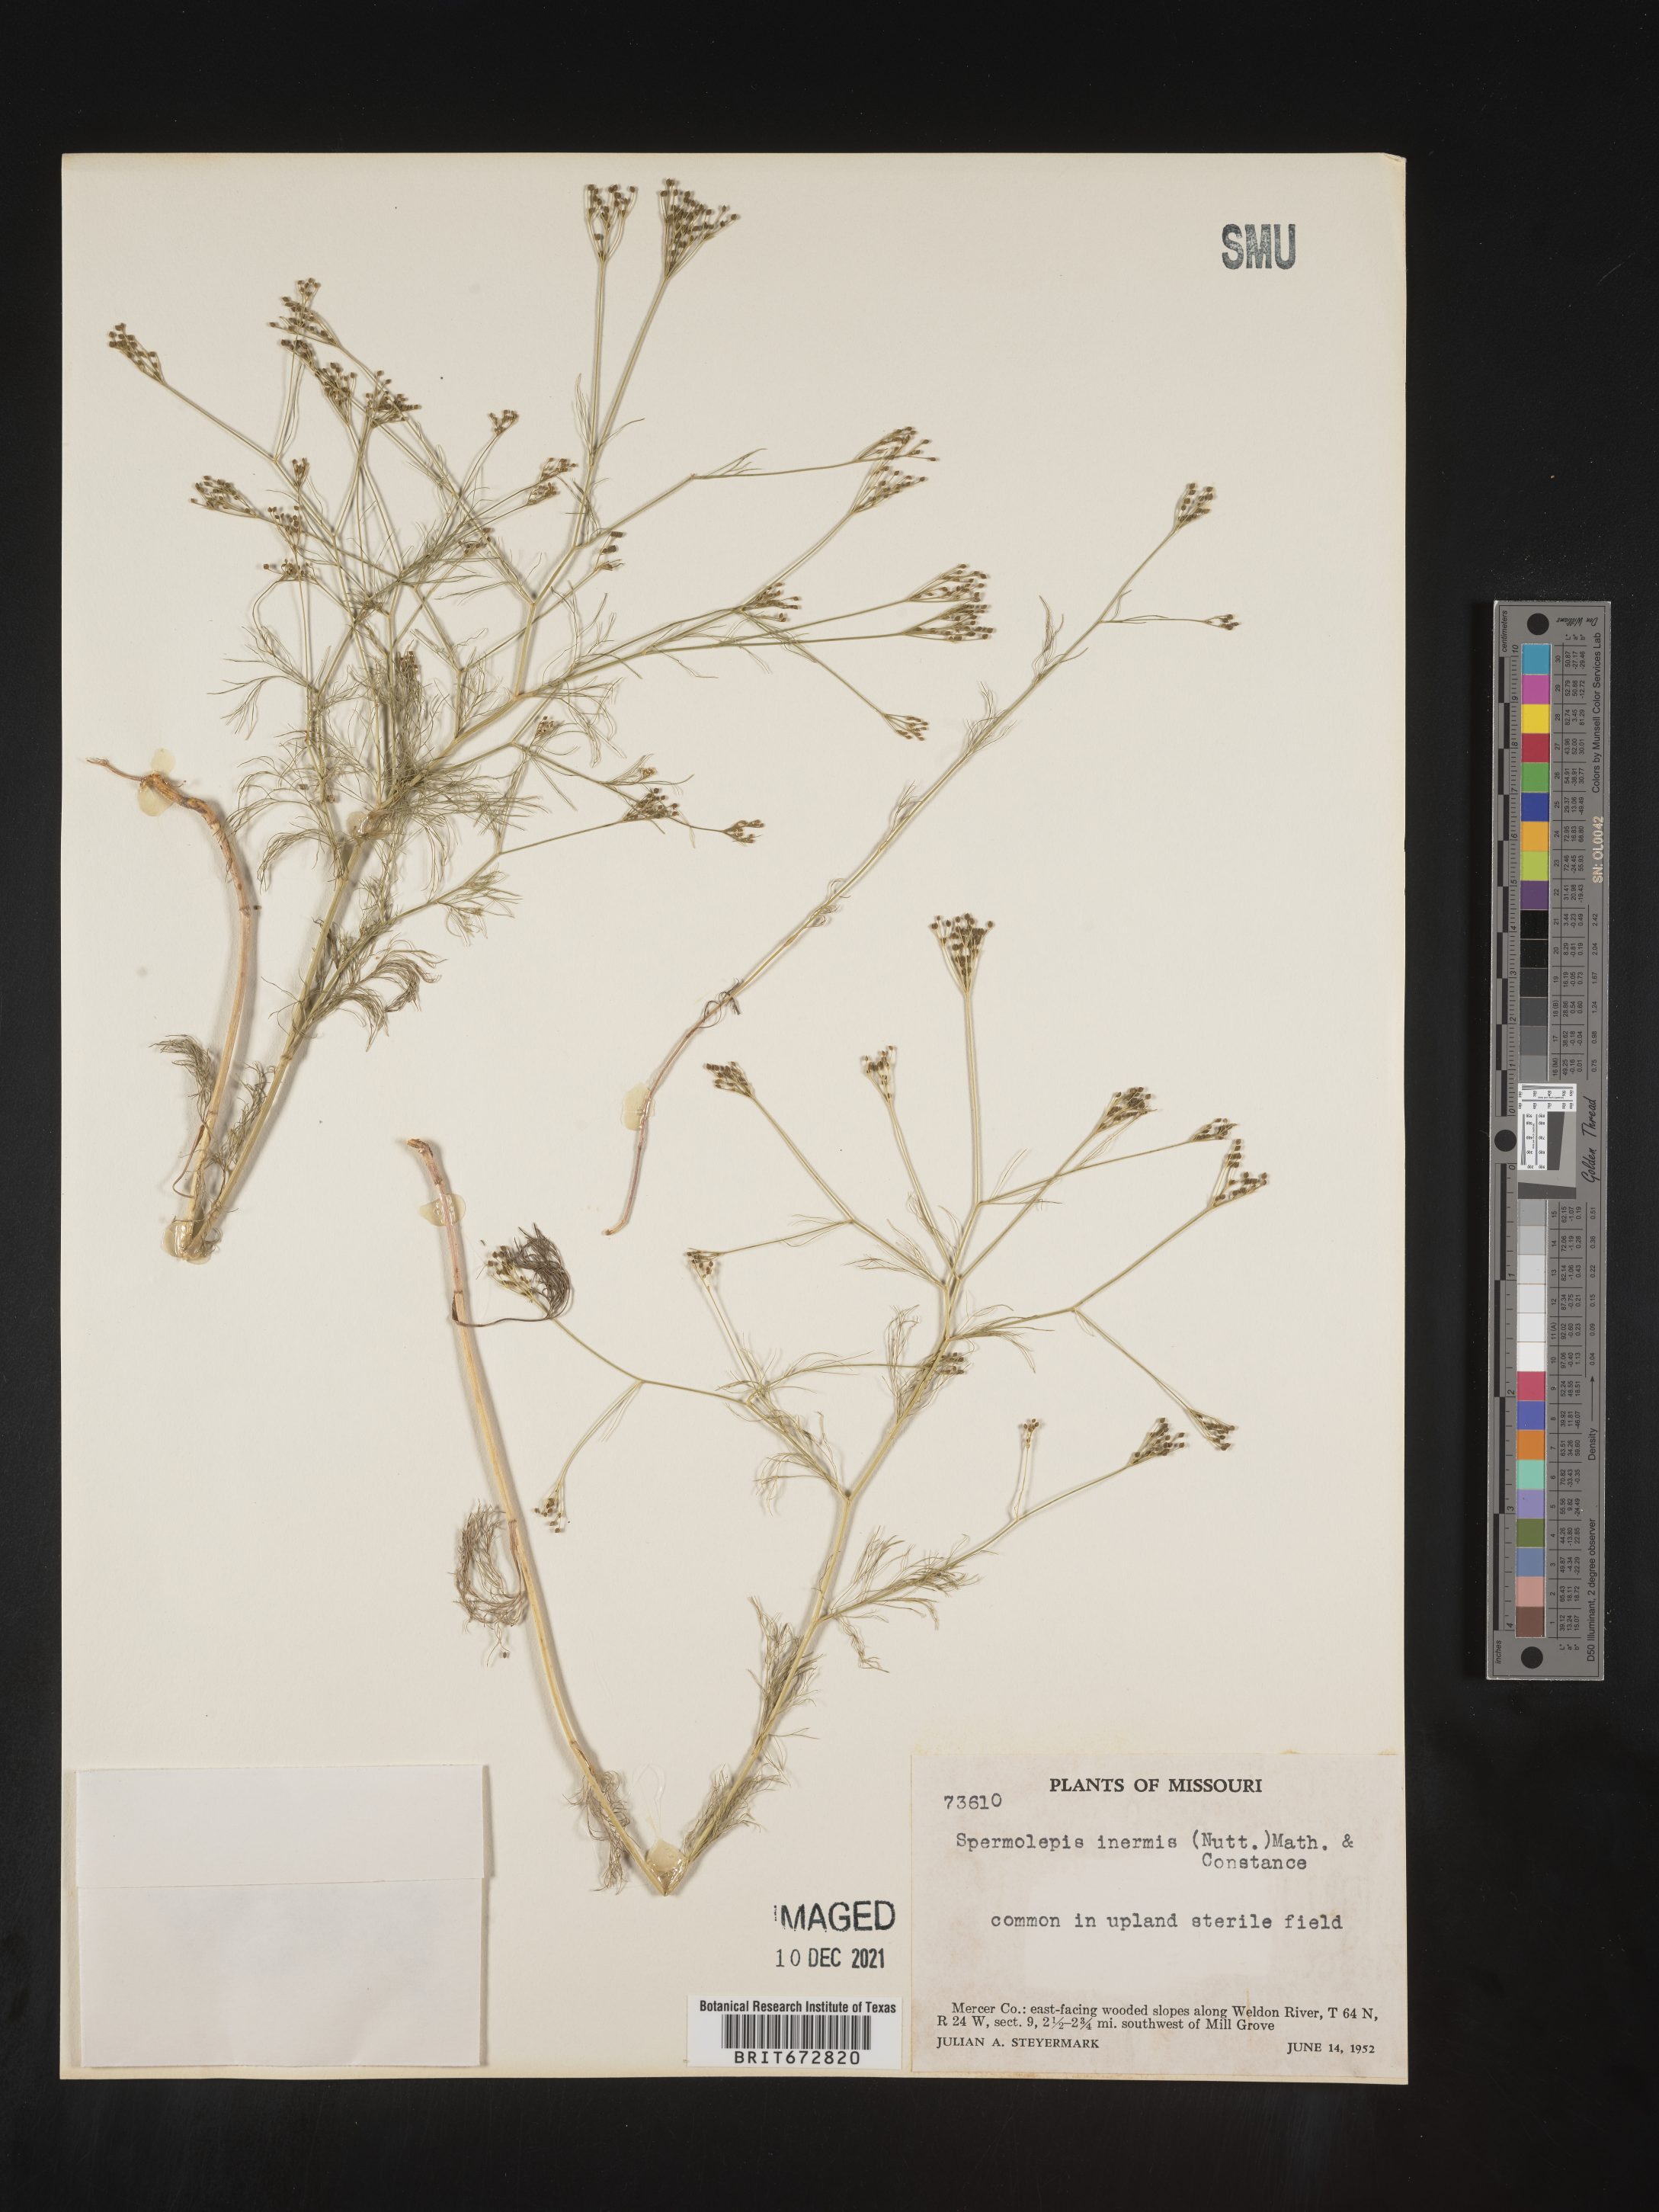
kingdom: Plantae
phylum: Tracheophyta
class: Magnoliopsida
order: Apiales
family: Apiaceae
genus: Spermolepis
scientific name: Spermolepis inermis
